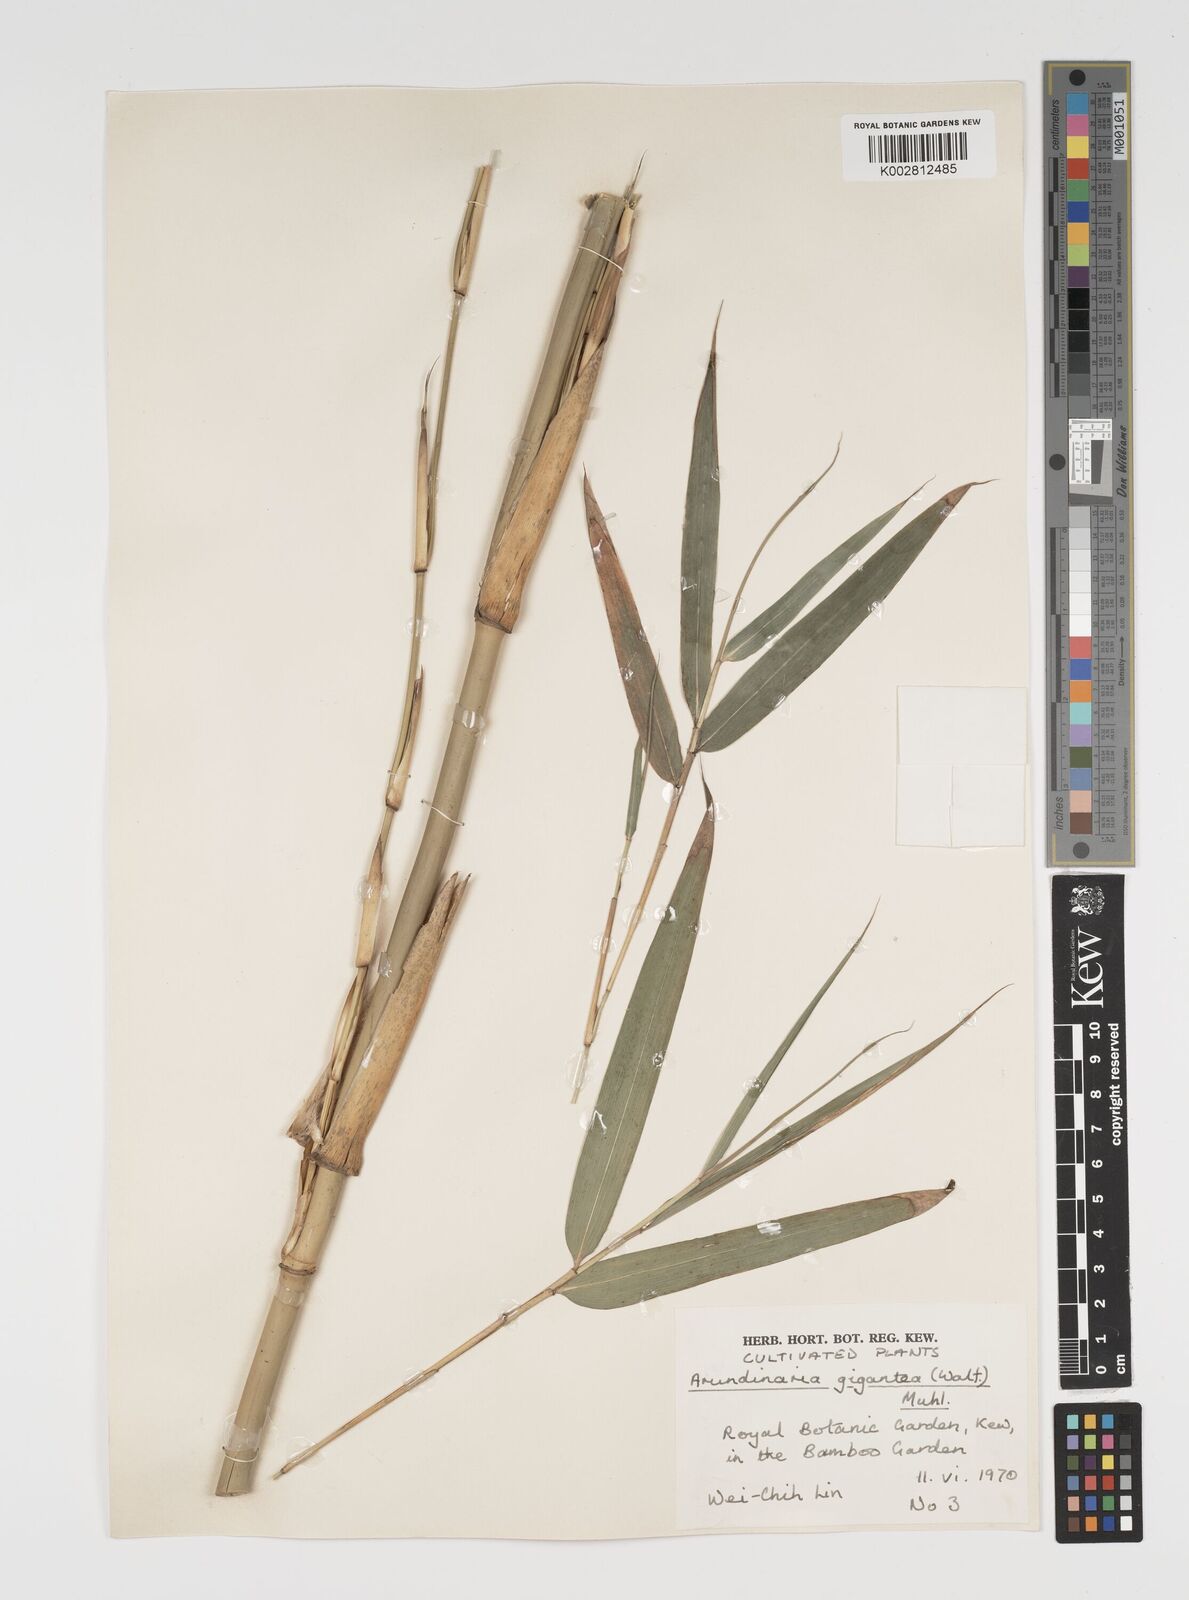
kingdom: Plantae
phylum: Tracheophyta
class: Liliopsida
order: Poales
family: Poaceae
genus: Pseudosasa
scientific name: Pseudosasa amabilis
